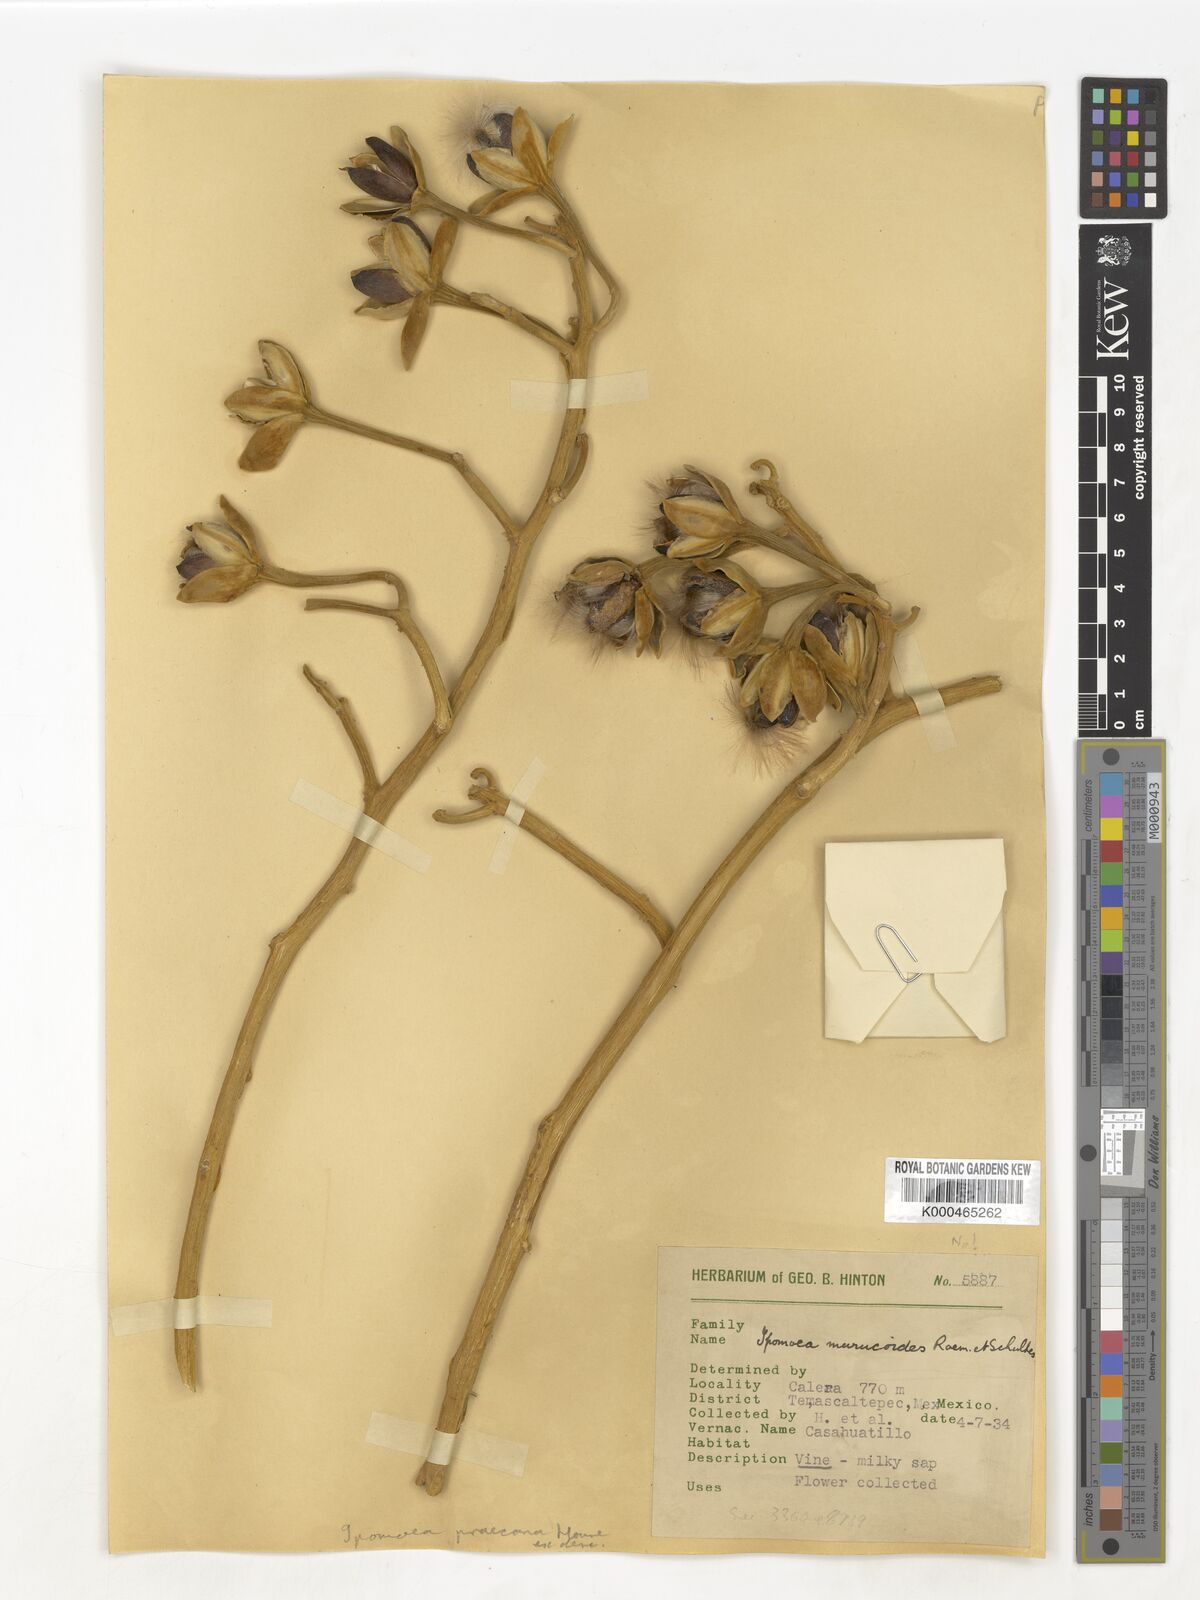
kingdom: Plantae
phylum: Tracheophyta
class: Magnoliopsida
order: Solanales
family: Convolvulaceae
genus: Ipomoea
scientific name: Ipomoea praecana
